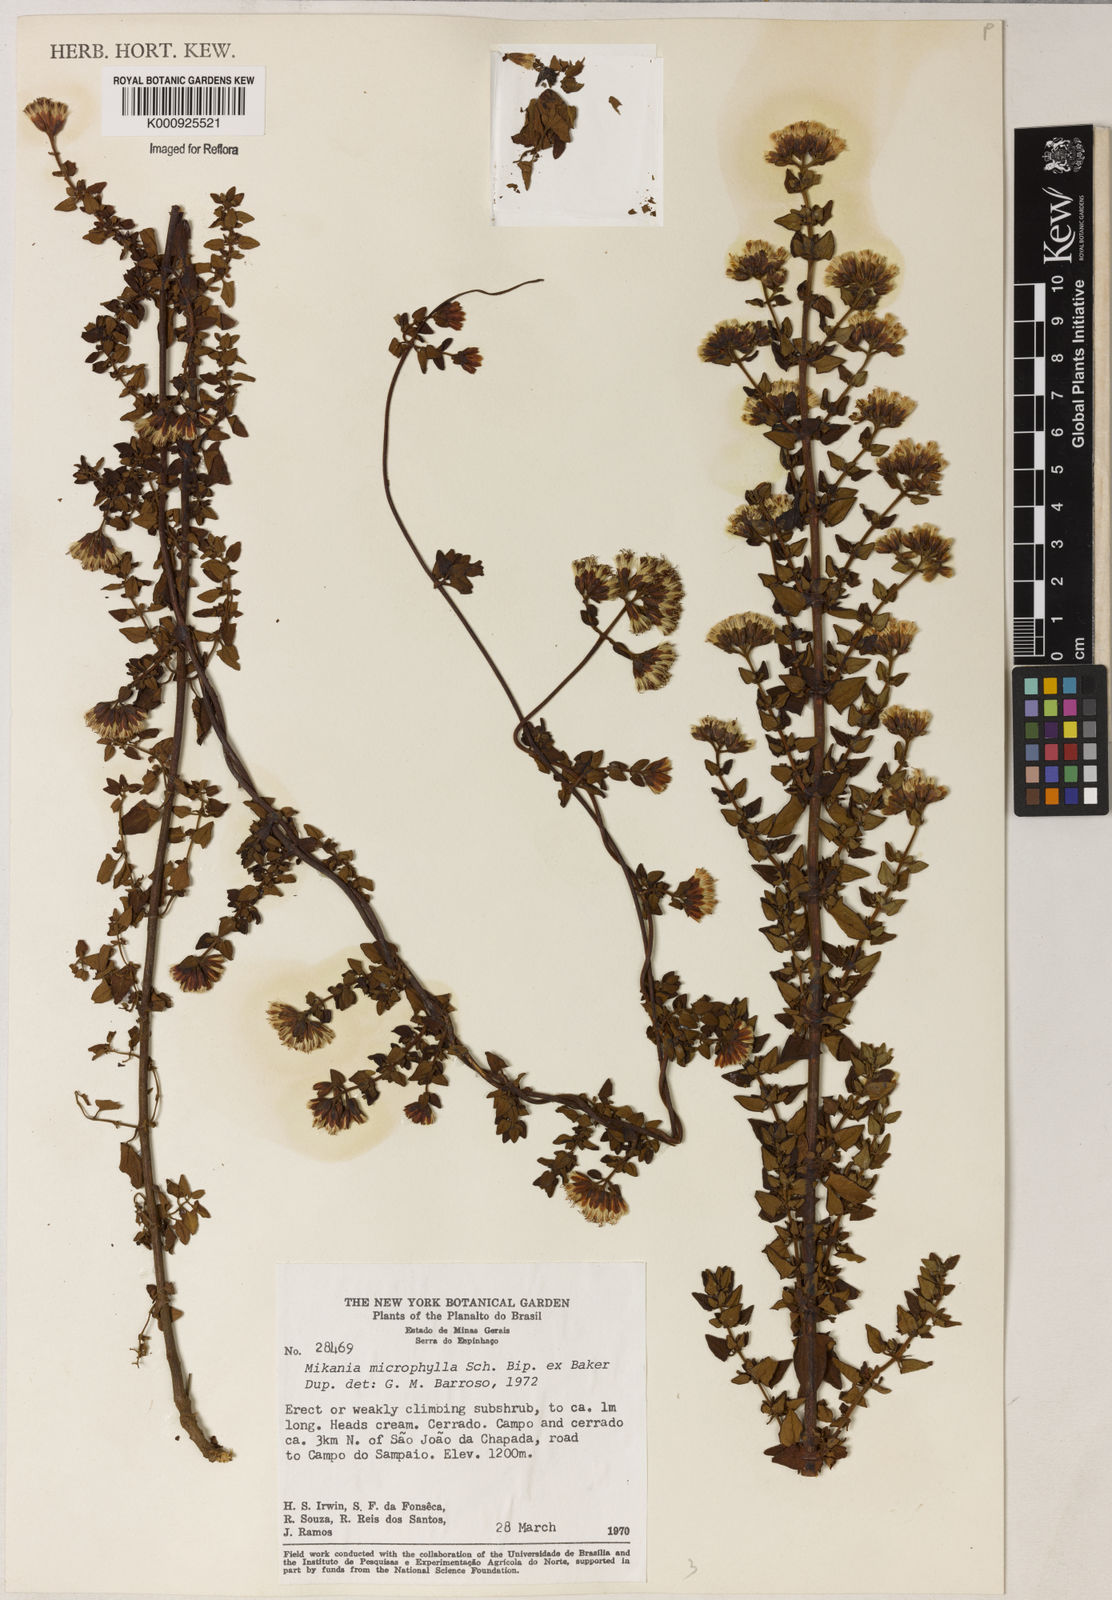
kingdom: Plantae
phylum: Tracheophyta
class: Magnoliopsida
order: Asterales
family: Asteraceae
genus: Mikania
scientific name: Mikania
